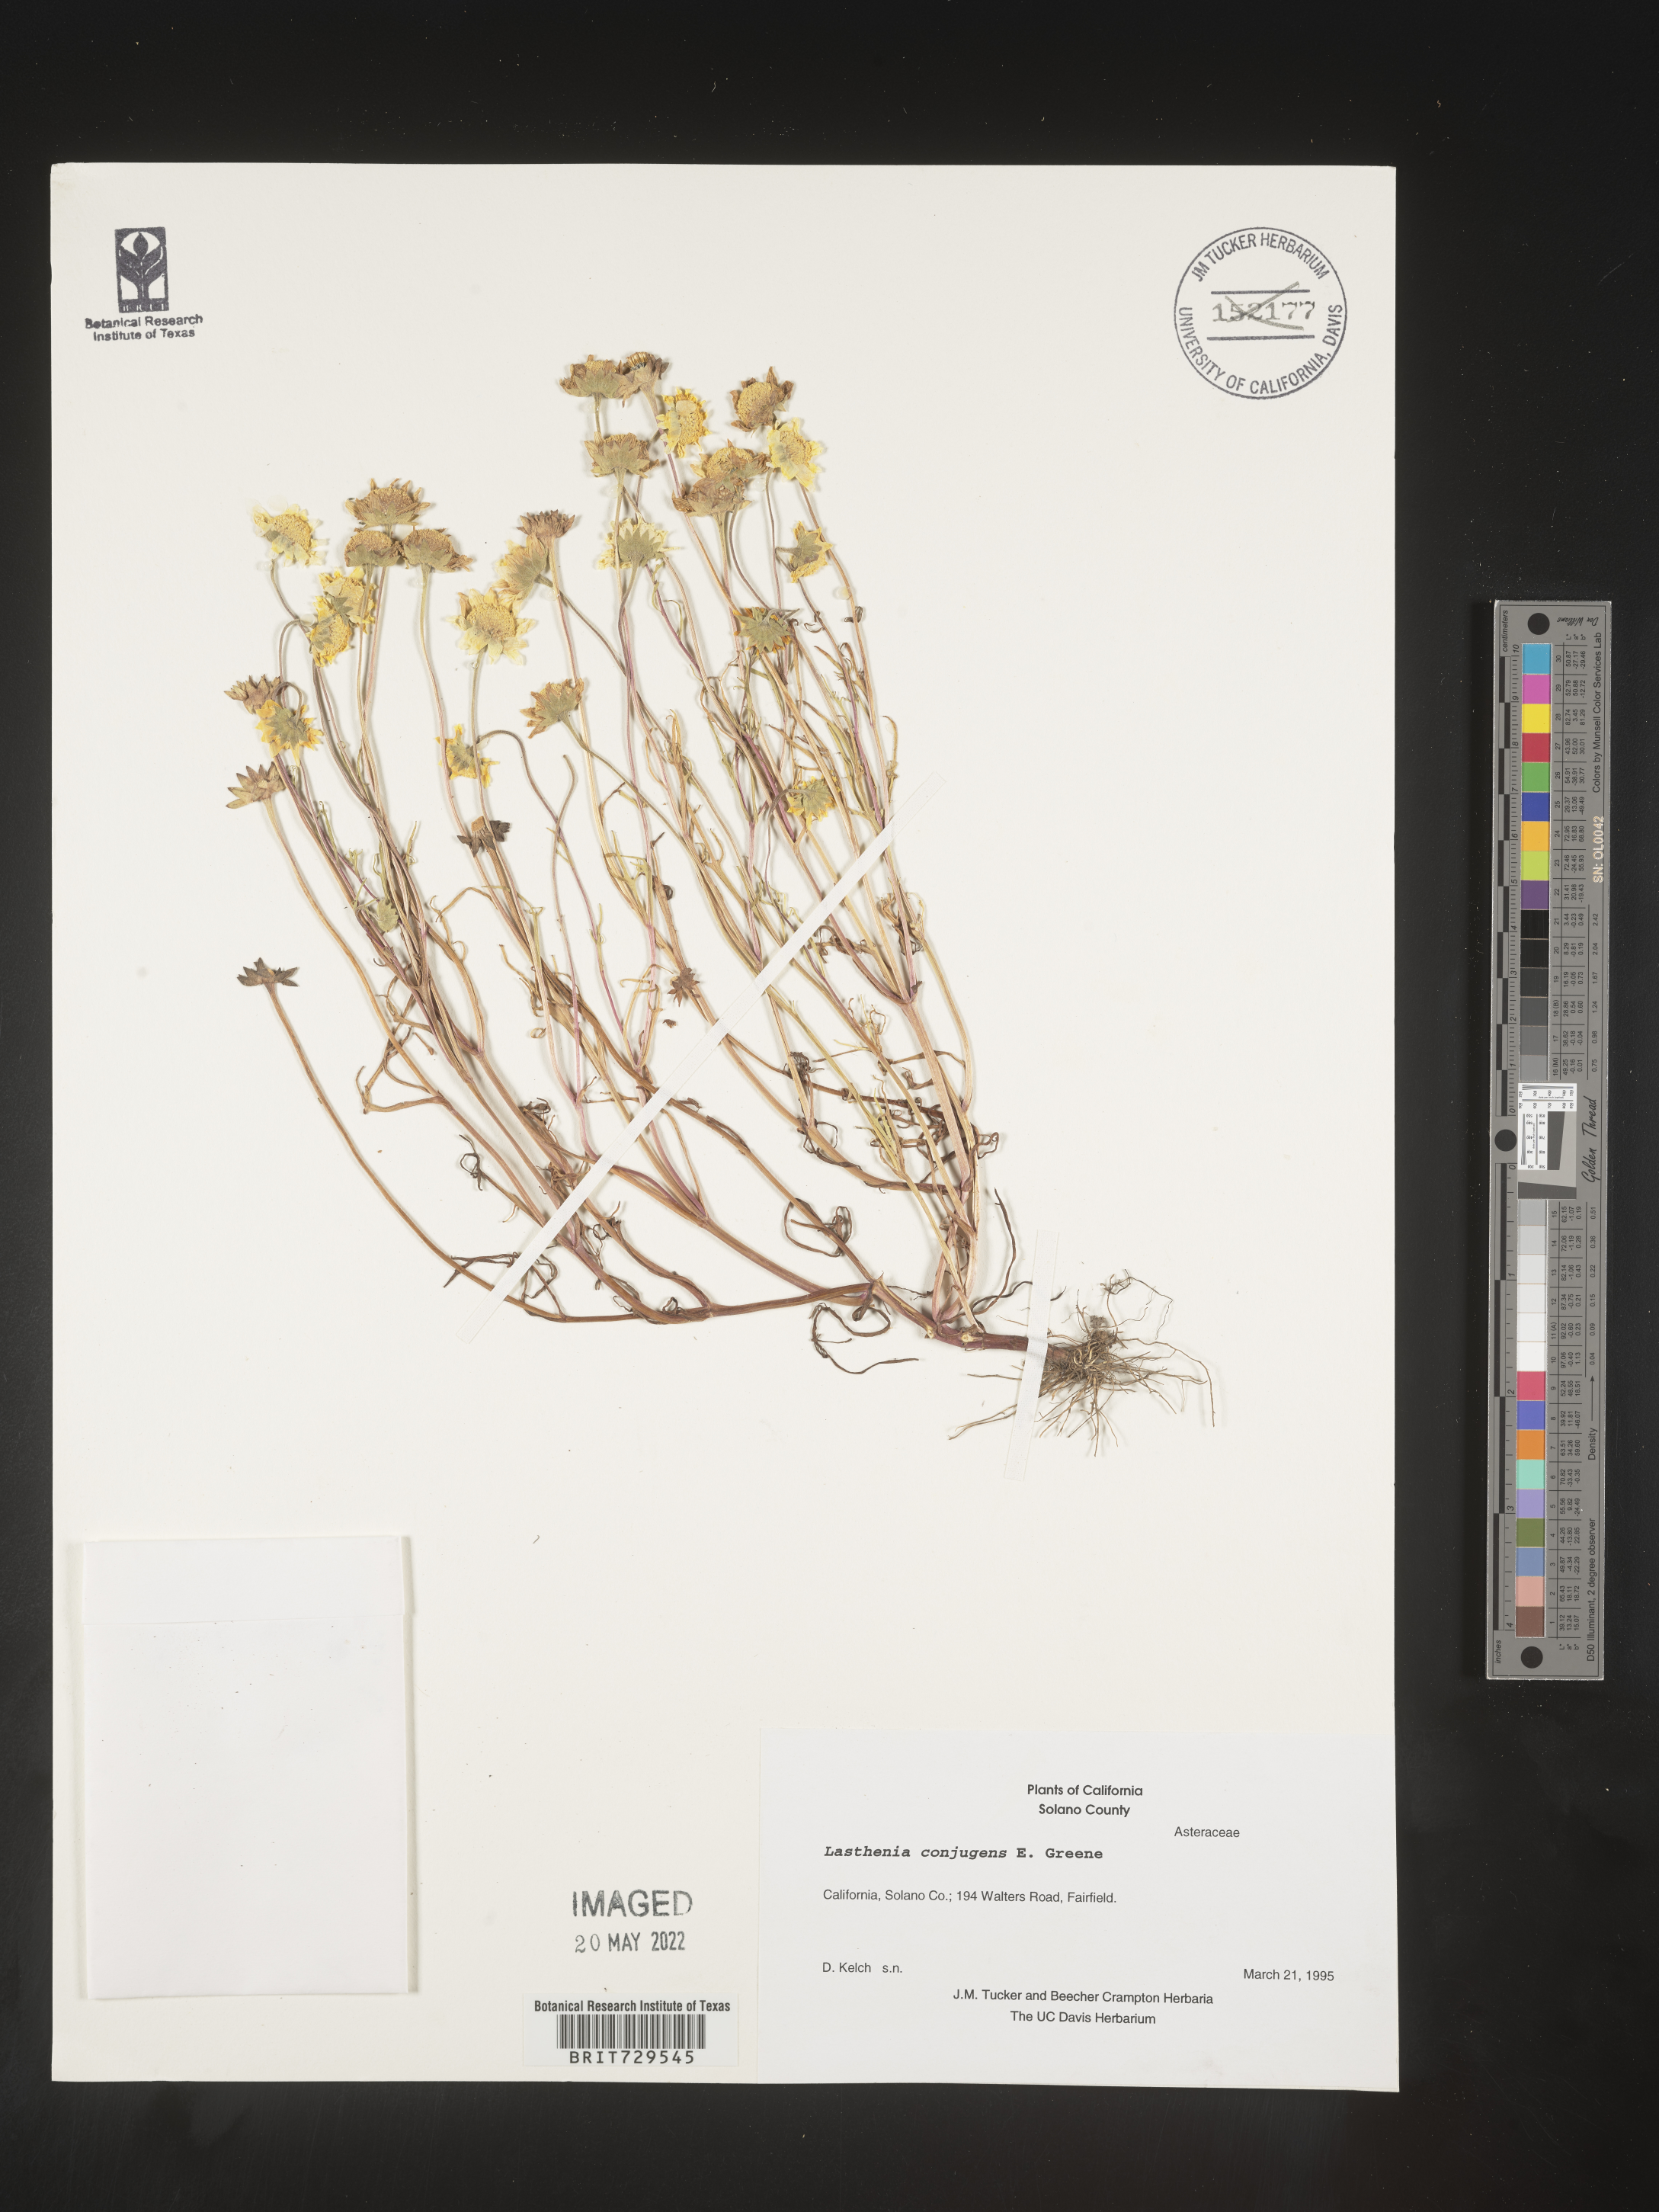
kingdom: Plantae
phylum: Tracheophyta
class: Magnoliopsida
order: Asterales
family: Asteraceae
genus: Lasthenia
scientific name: Lasthenia
